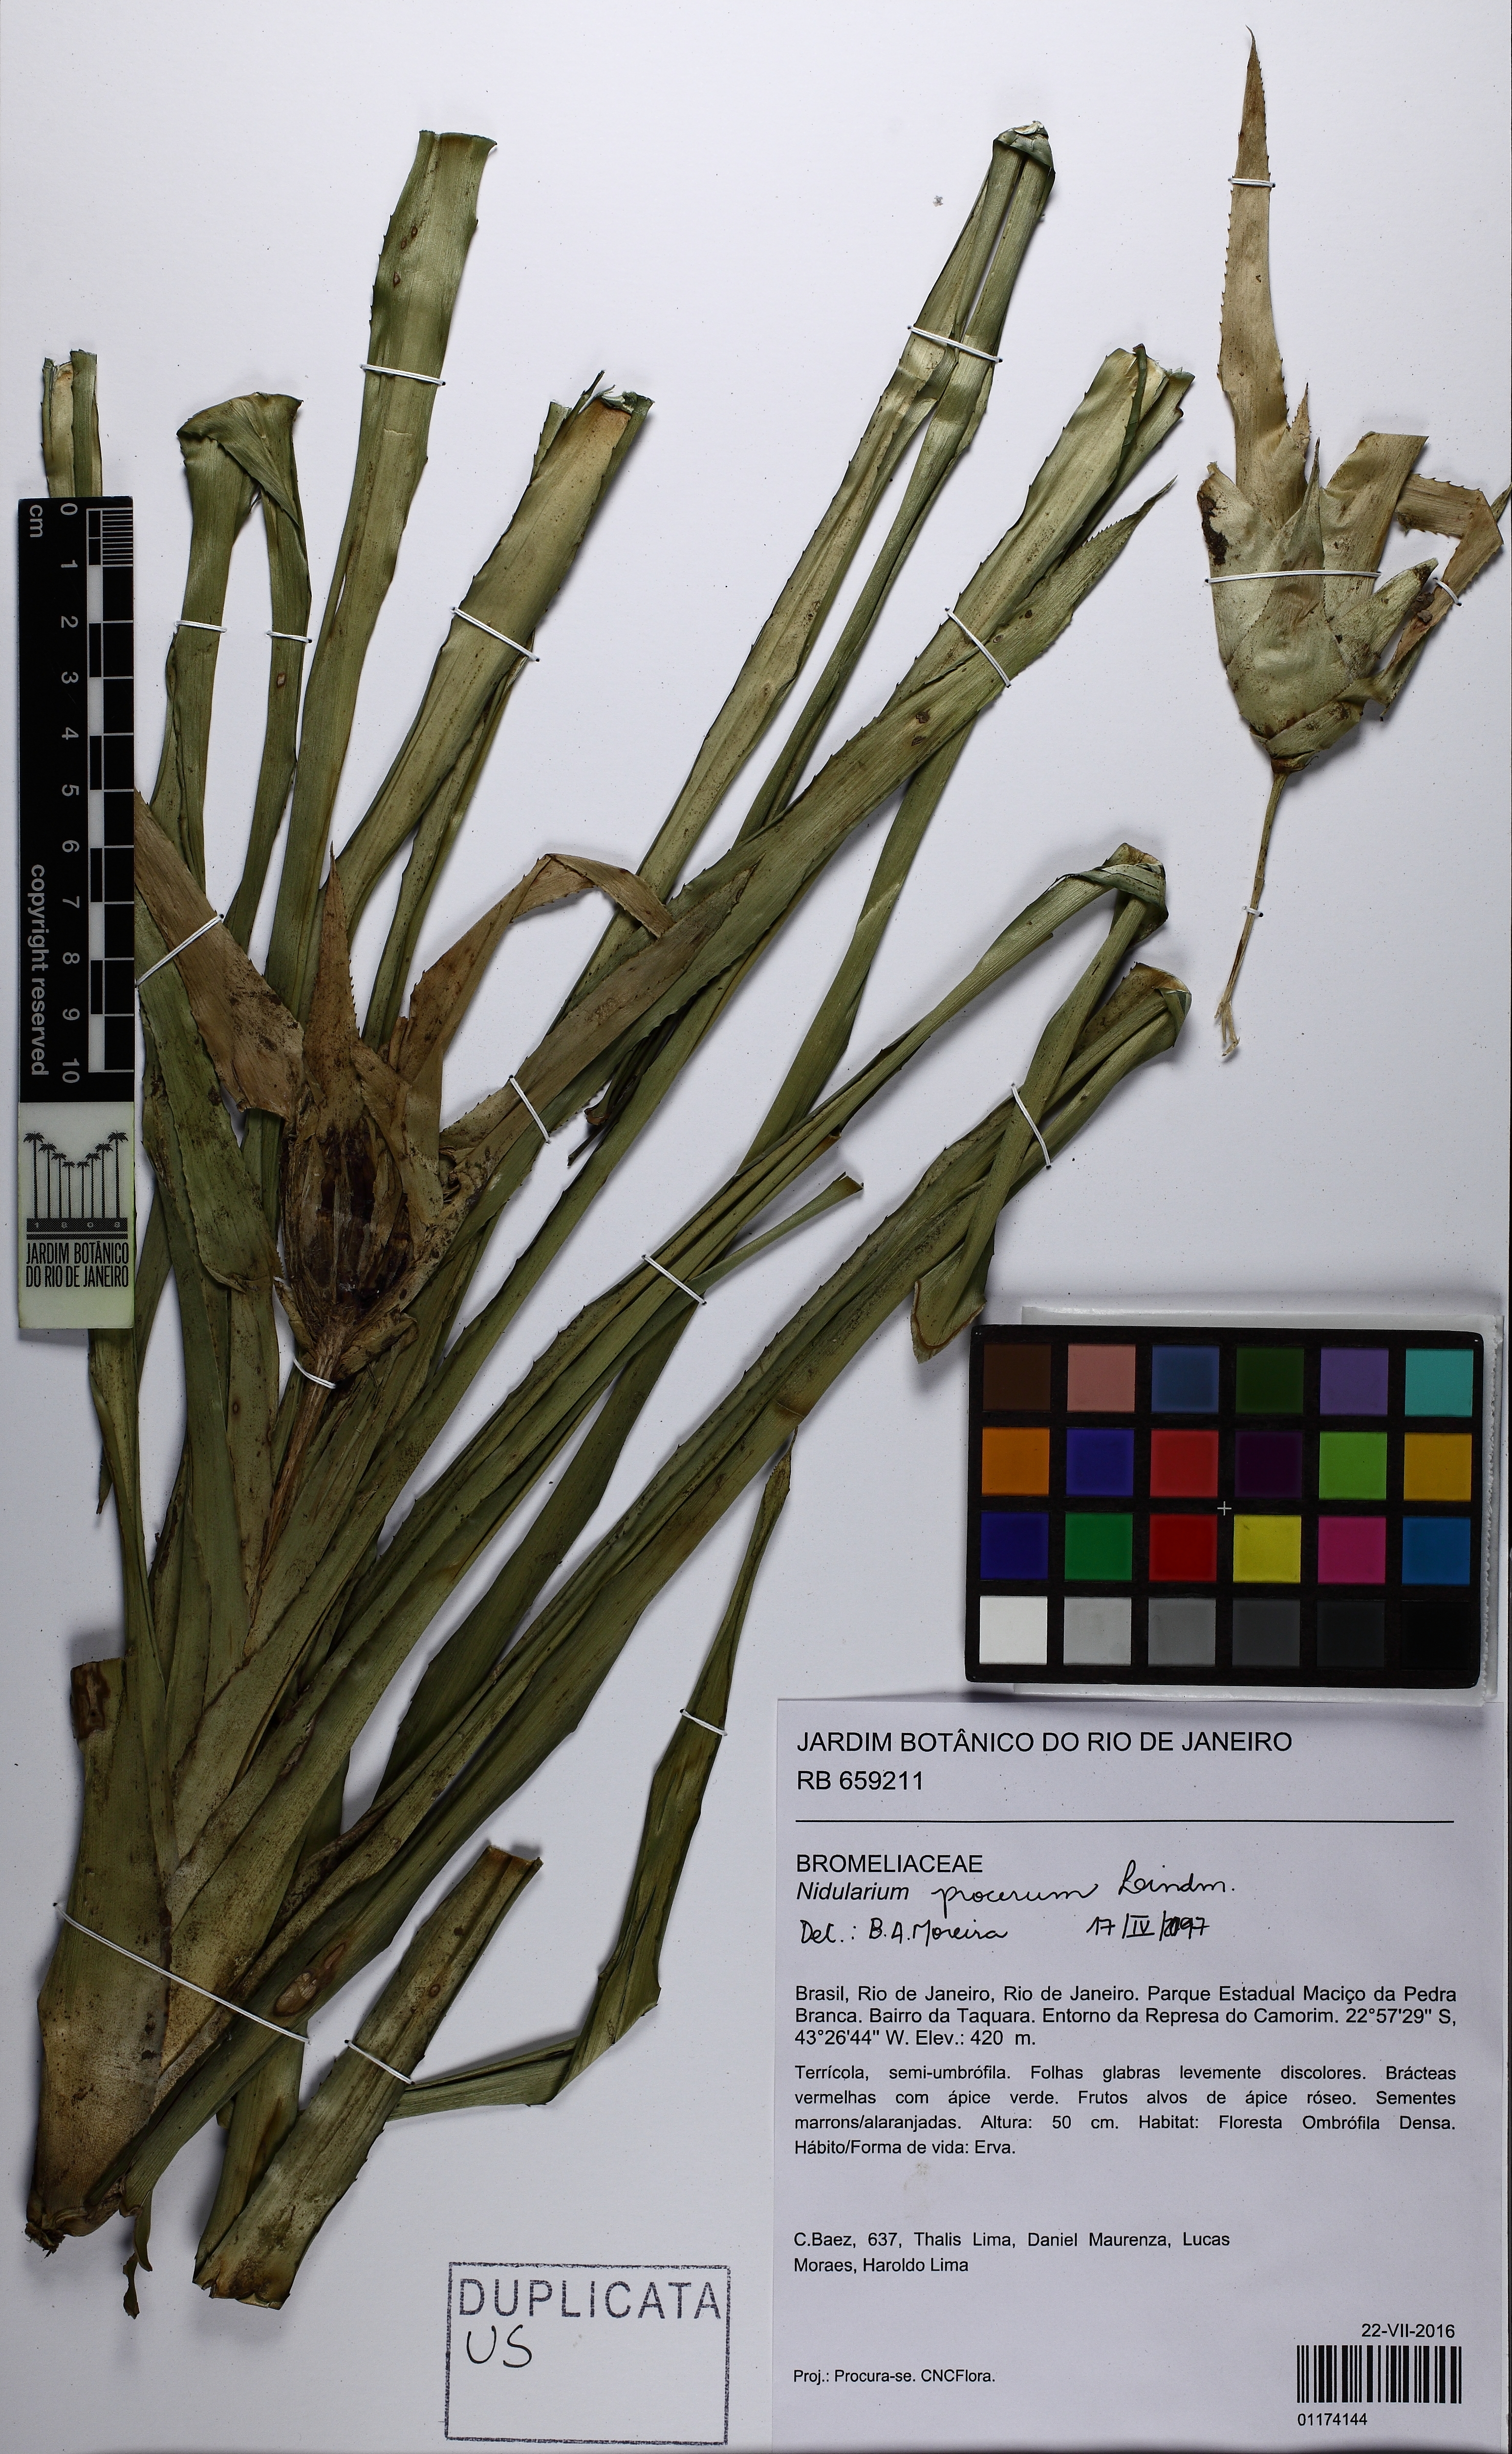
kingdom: Plantae
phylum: Tracheophyta
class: Liliopsida
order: Poales
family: Bromeliaceae
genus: Nidularium
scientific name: Nidularium procerum
